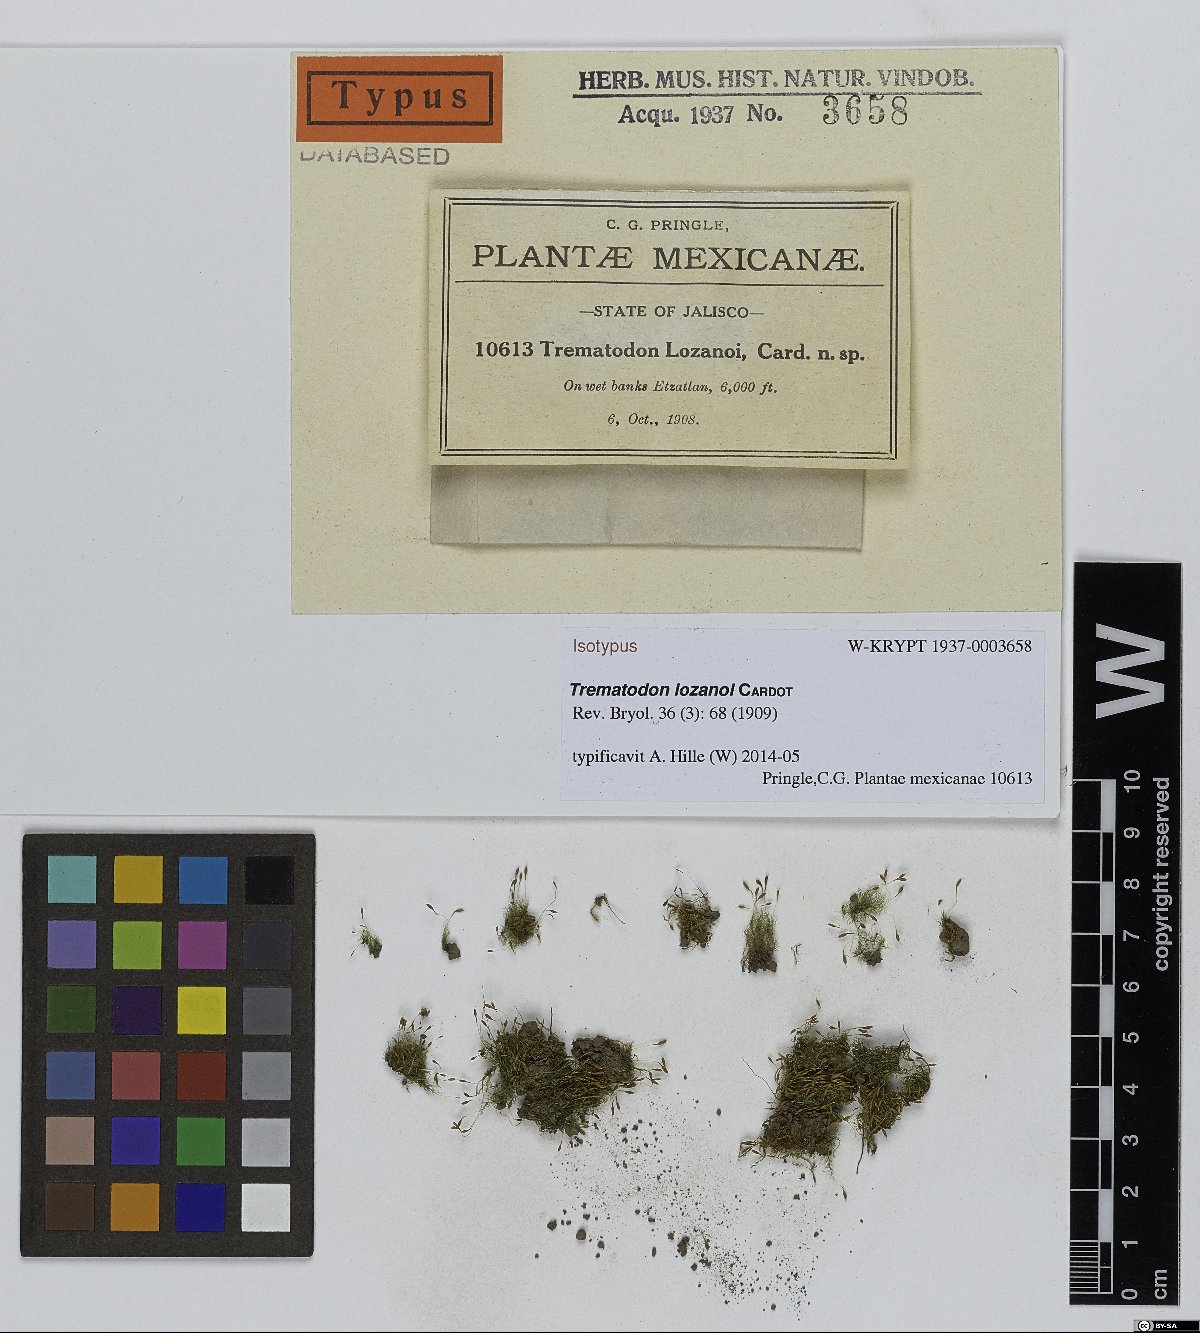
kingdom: Plantae
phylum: Bryophyta
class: Bryopsida
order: Dicranales
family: Bruchiaceae
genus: Trematodon
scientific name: Trematodon lozanoi
